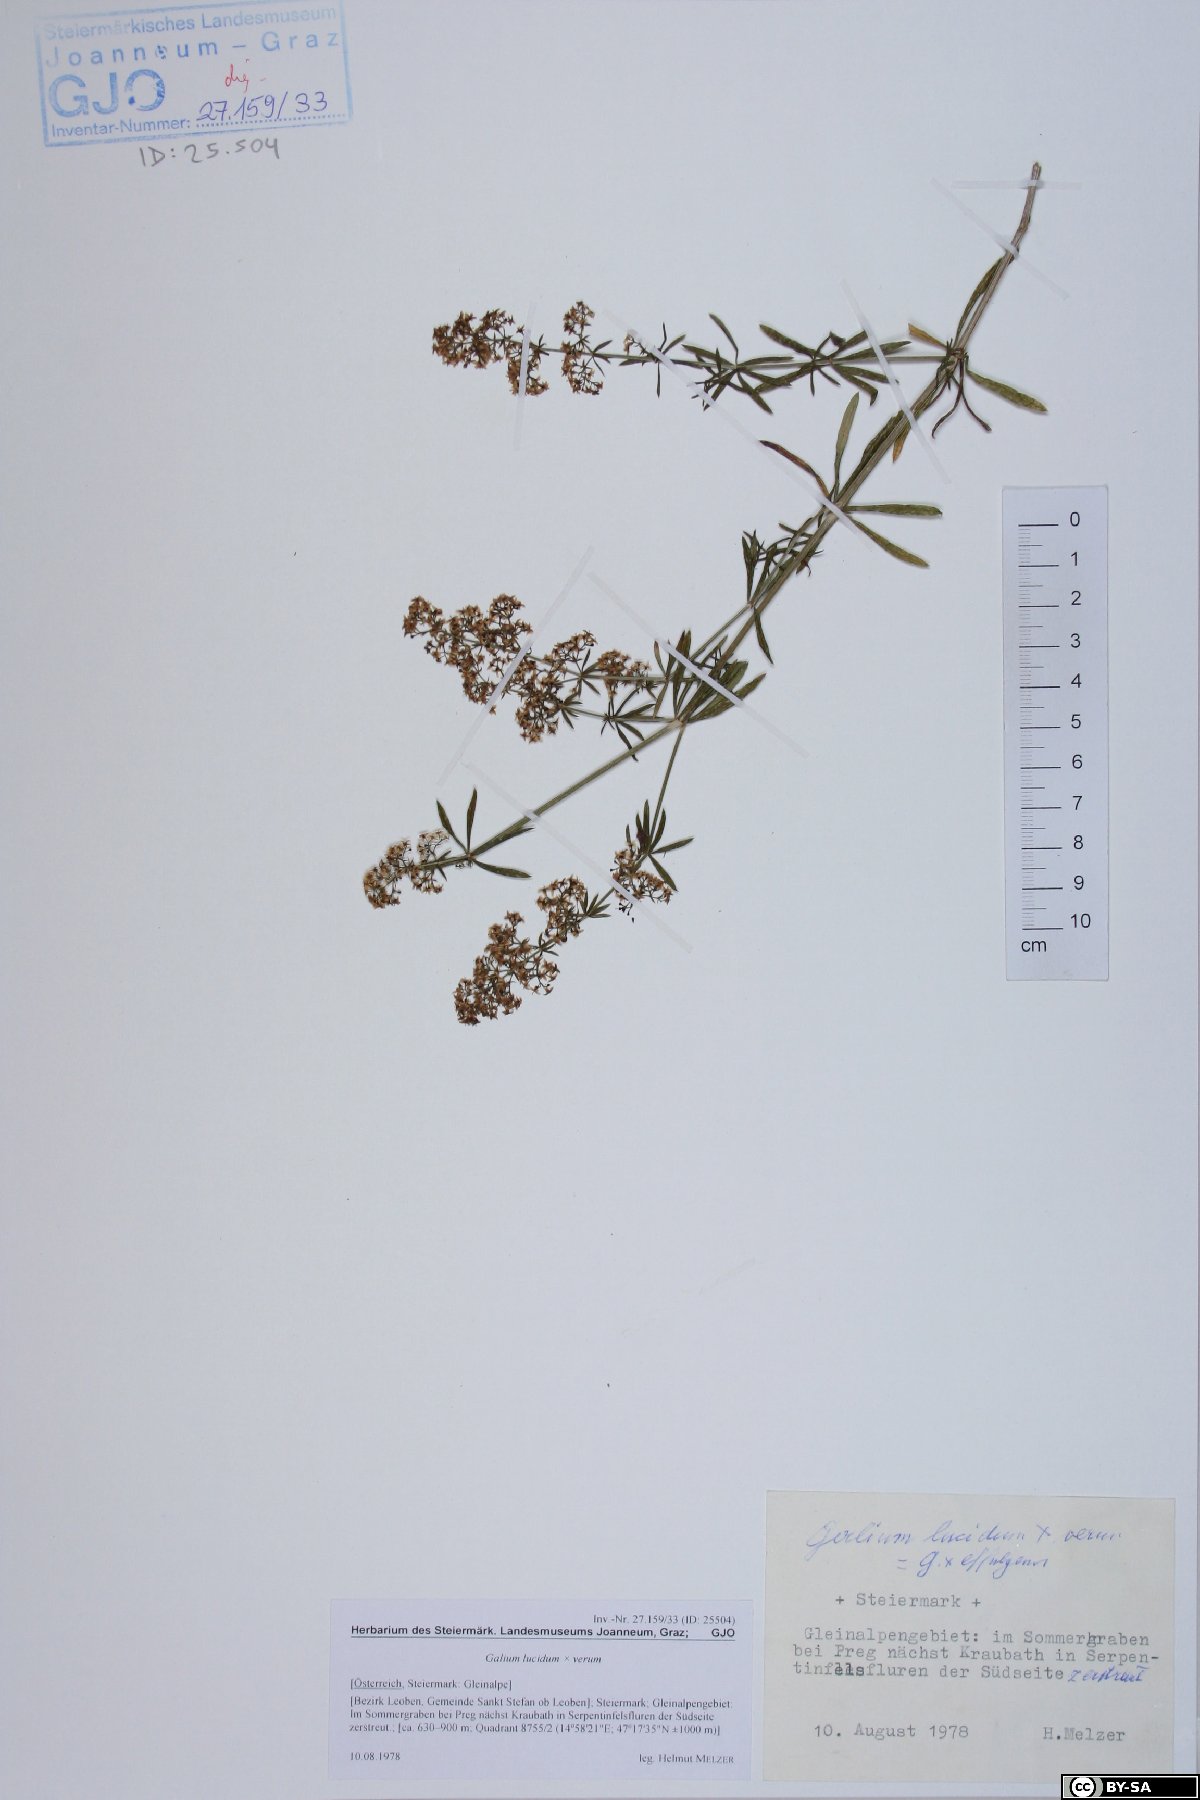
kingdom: Plantae
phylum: Tracheophyta
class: Magnoliopsida
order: Gentianales
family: Rubiaceae
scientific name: Rubiaceae
